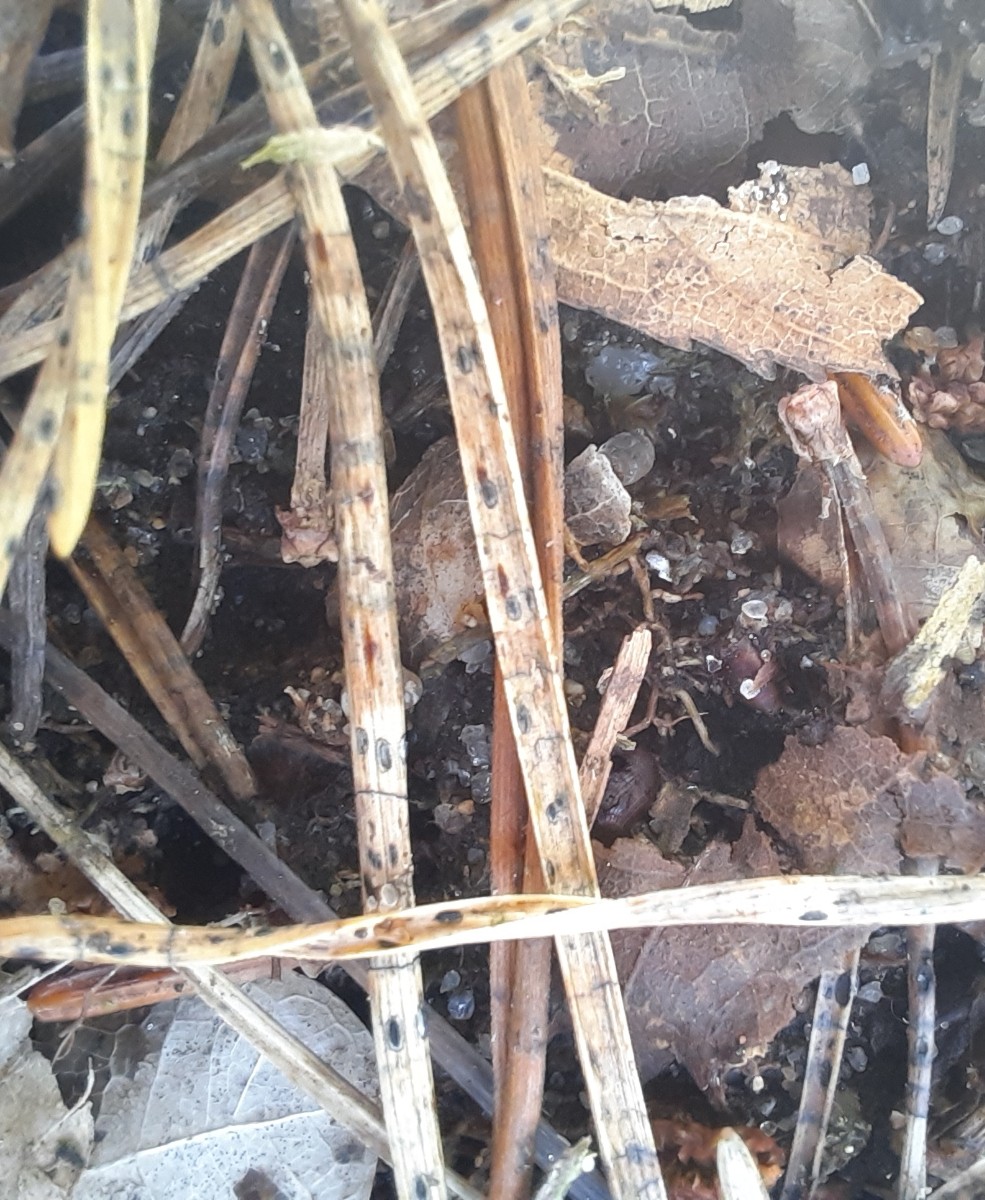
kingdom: Fungi
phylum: Ascomycota
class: Leotiomycetes
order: Rhytismatales
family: Rhytismataceae
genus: Lophodermium
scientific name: Lophodermium pinastri
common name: fyrre-fureplet
